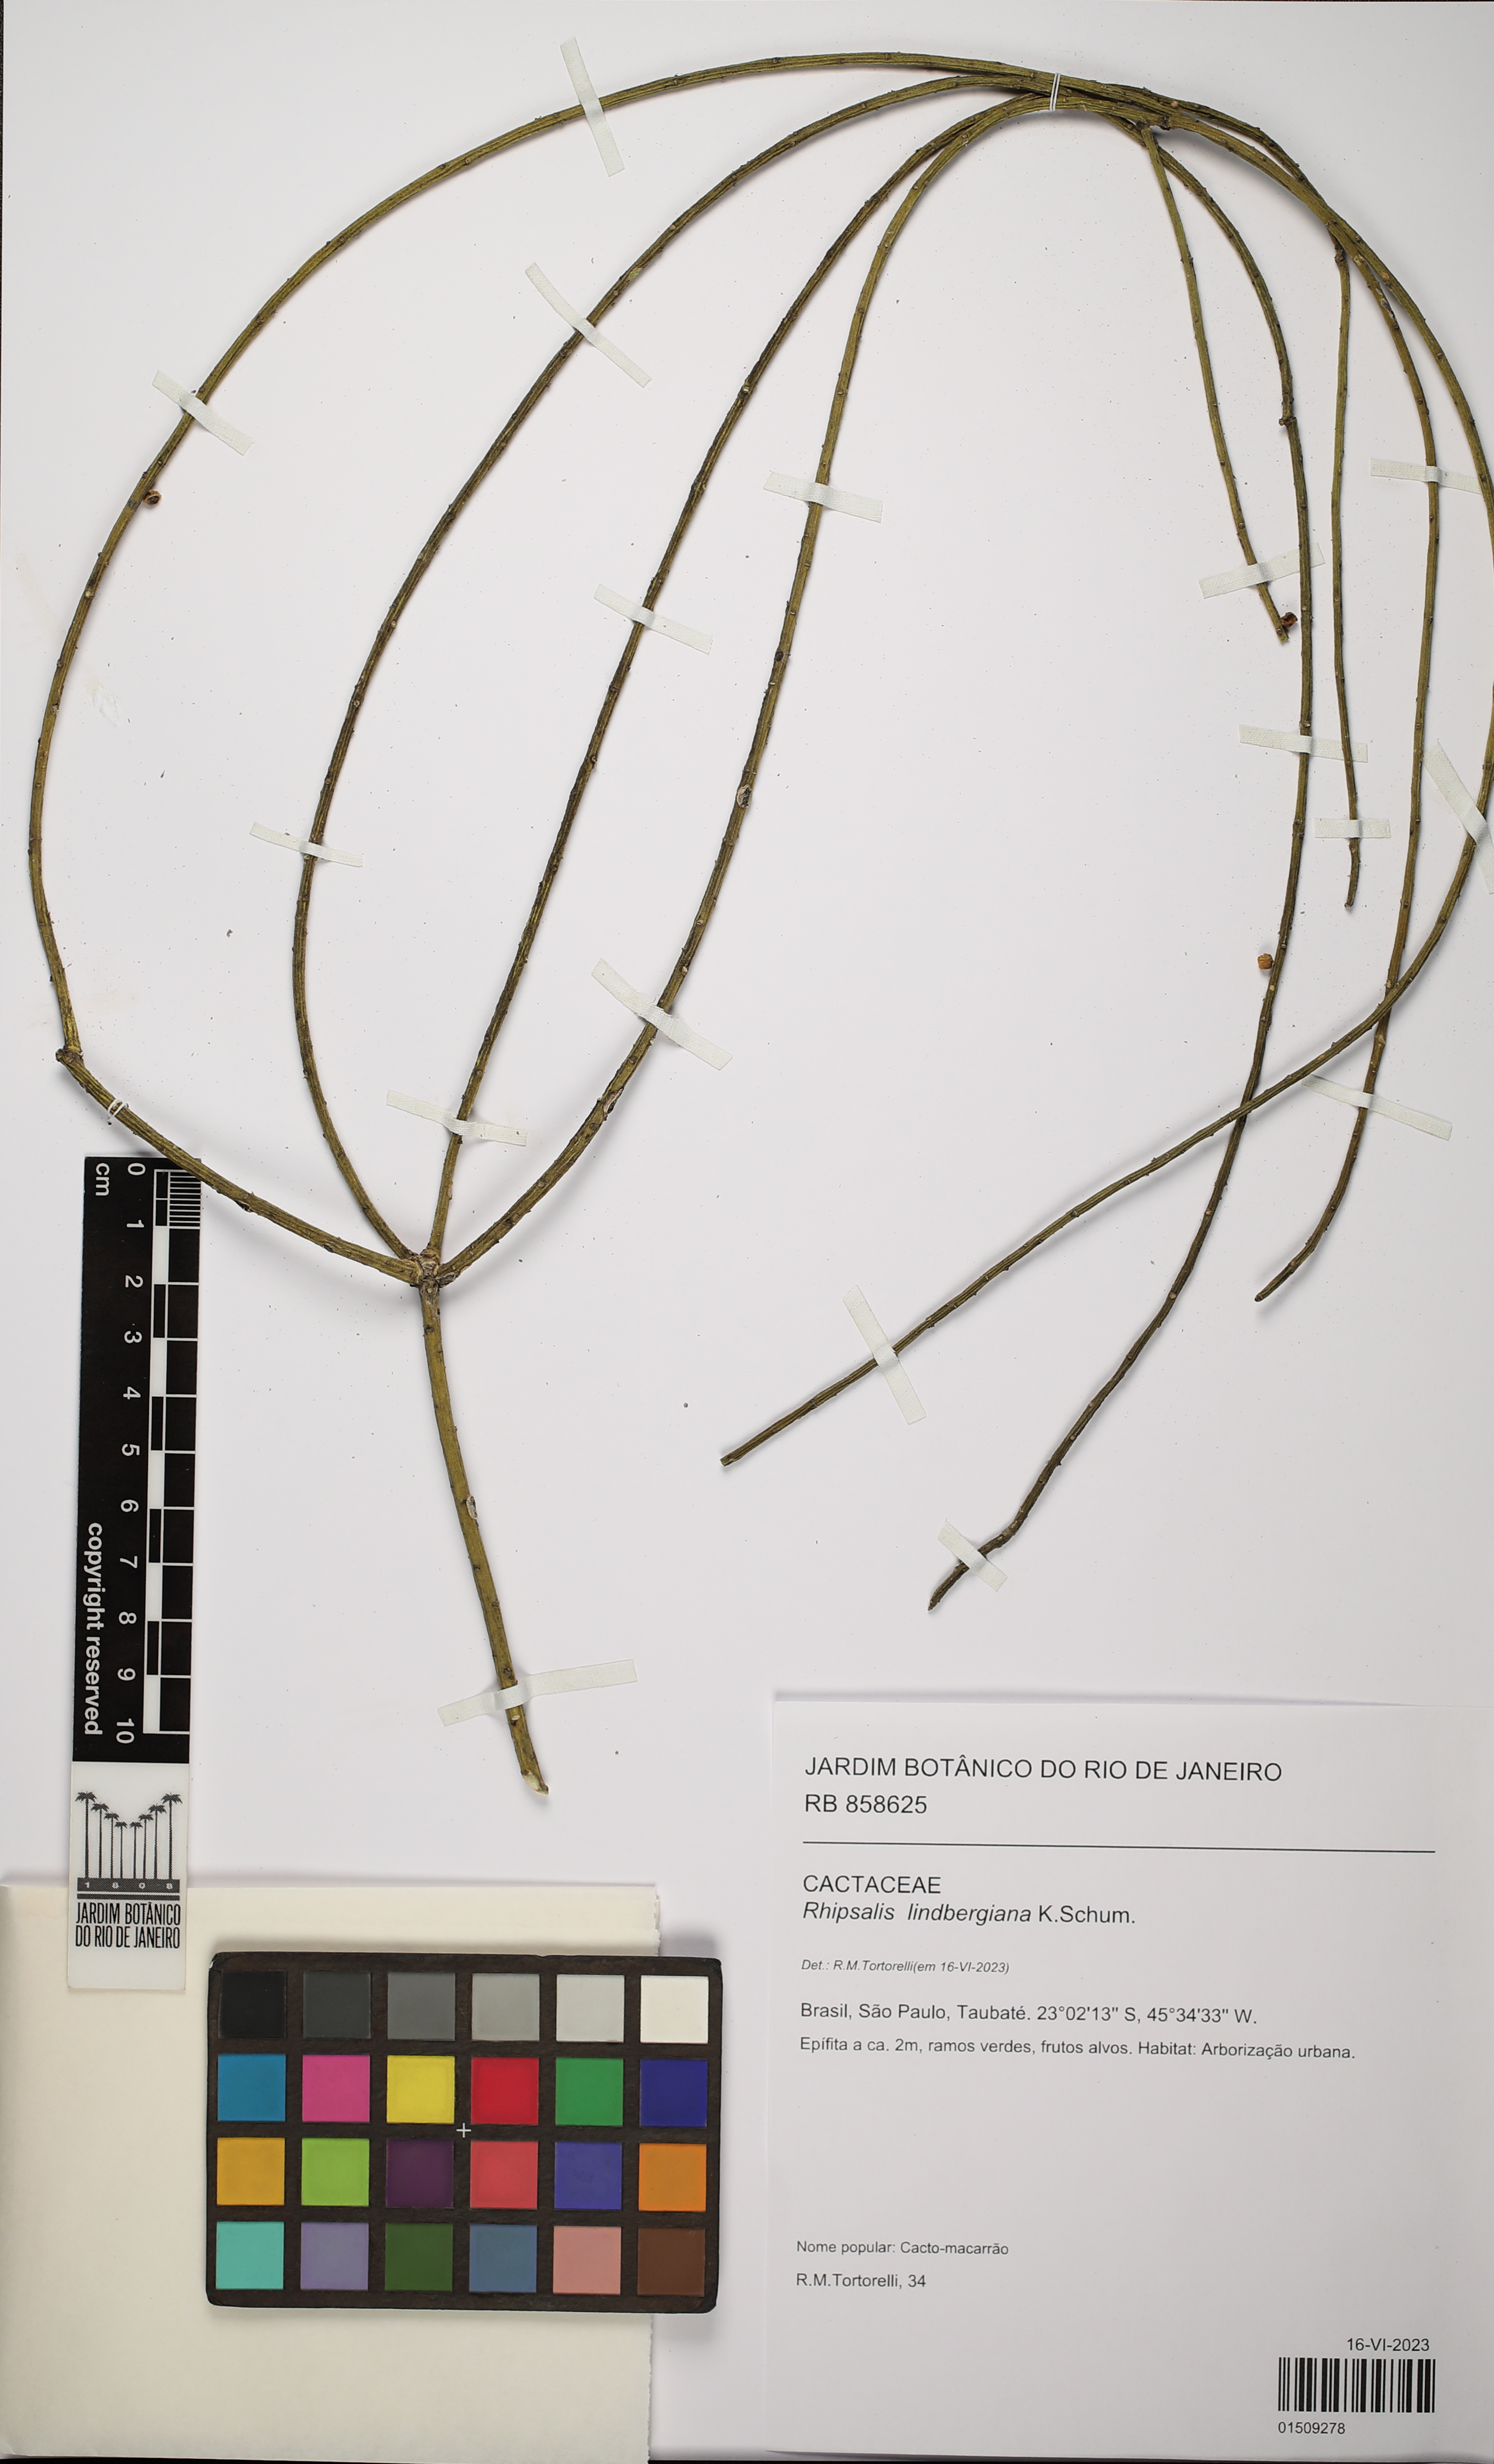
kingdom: Plantae
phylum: Tracheophyta
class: Magnoliopsida
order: Caryophyllales
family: Cactaceae
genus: Rhipsalis
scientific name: Rhipsalis lindbergiana
